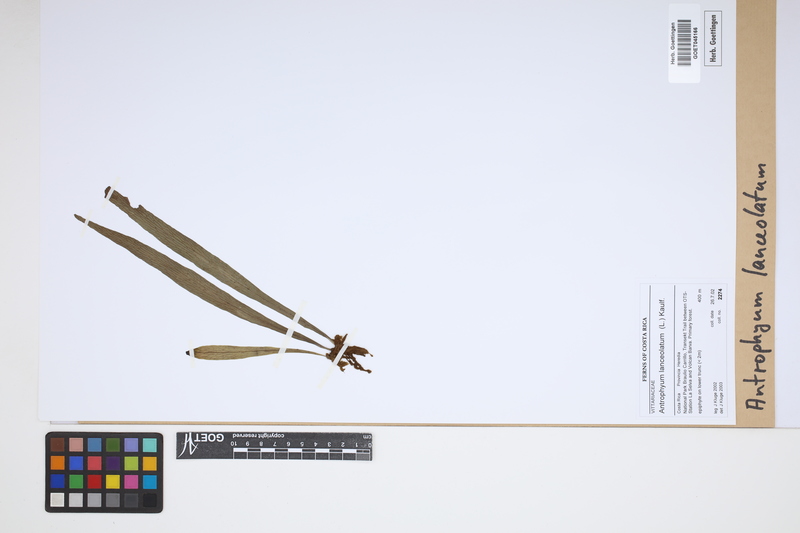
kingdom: Plantae
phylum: Tracheophyta
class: Polypodiopsida
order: Polypodiales
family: Pteridaceae
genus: Polytaenium
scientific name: Polytaenium feei
